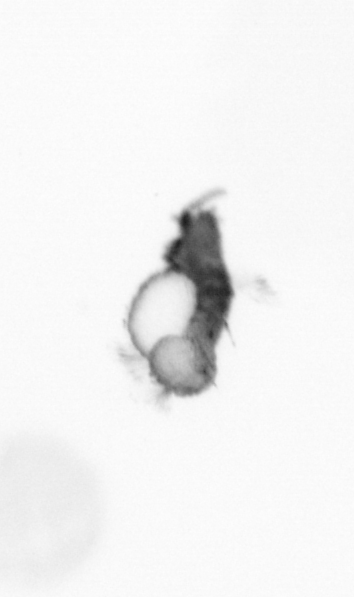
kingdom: Animalia
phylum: Annelida
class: Polychaeta
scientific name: Polychaeta
